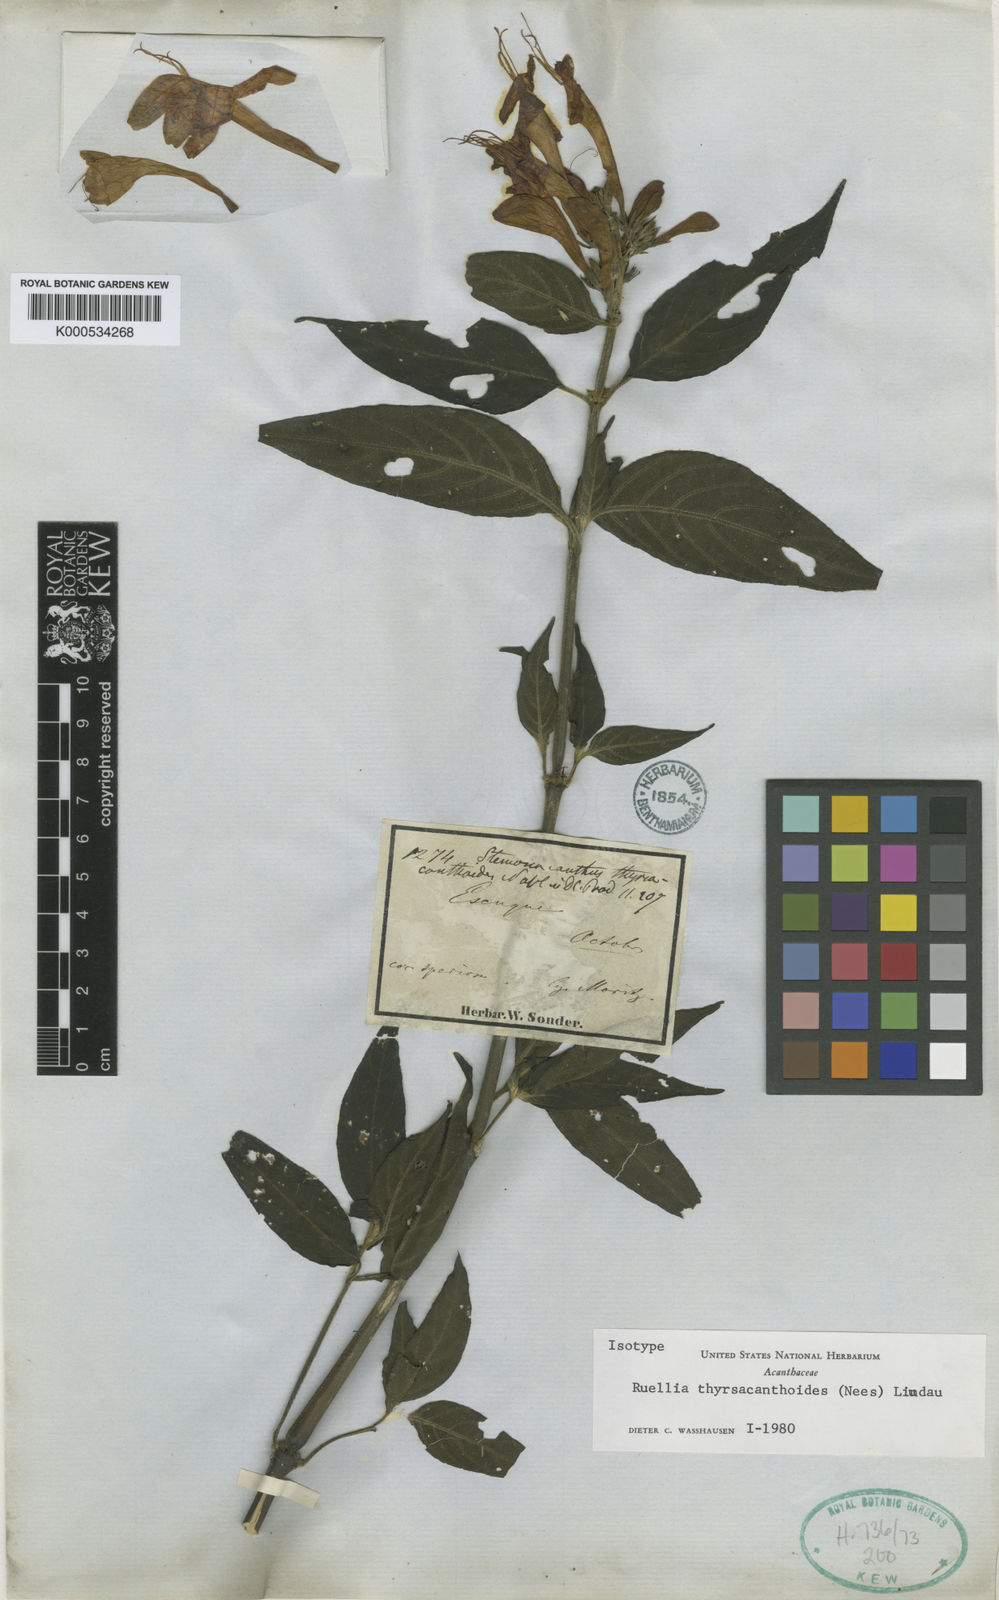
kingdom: Plantae
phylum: Tracheophyta
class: Magnoliopsida
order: Lamiales
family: Acanthaceae
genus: Ruellia
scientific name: Ruellia humboldtiana
